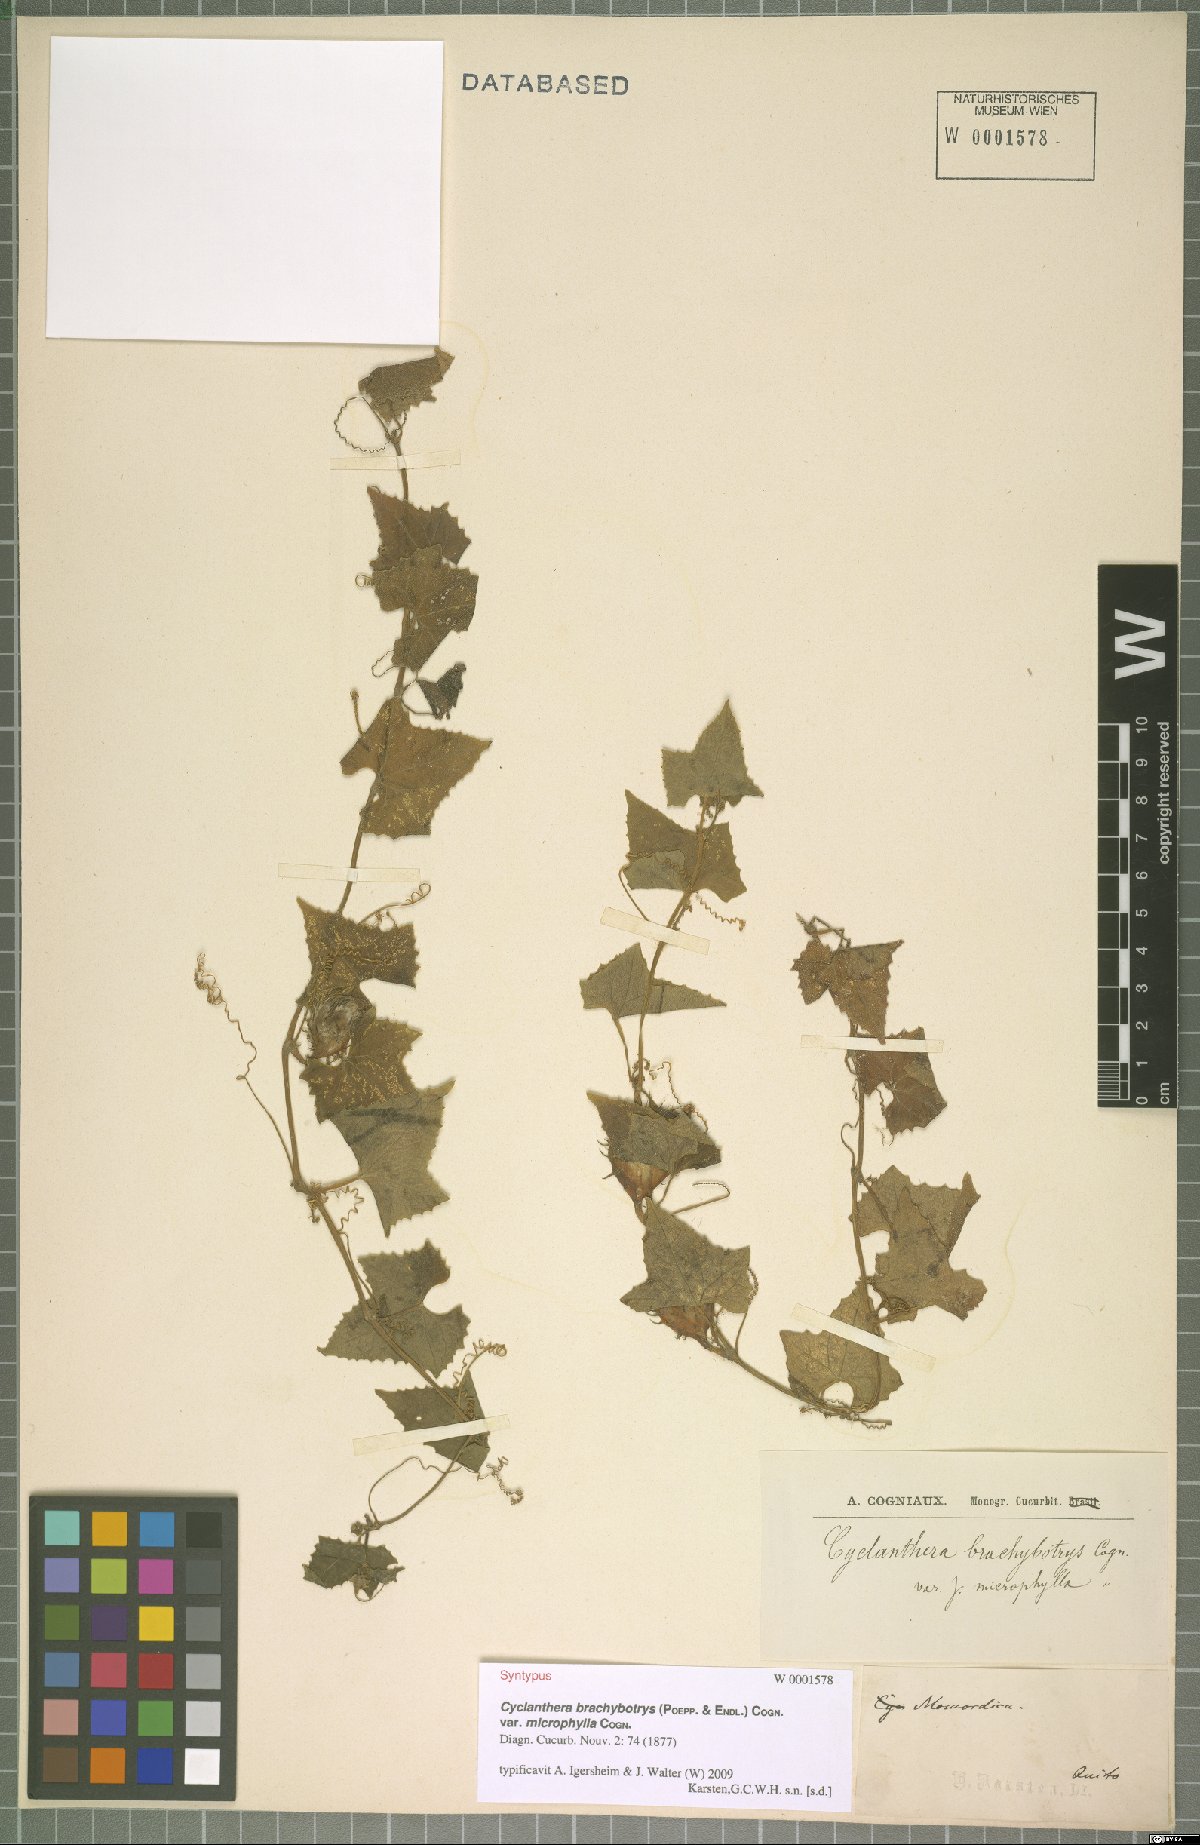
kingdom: Plantae
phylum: Tracheophyta
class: Magnoliopsida
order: Cucurbitales
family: Cucurbitaceae
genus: Cyclanthera
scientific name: Cyclanthera brachybotrys
